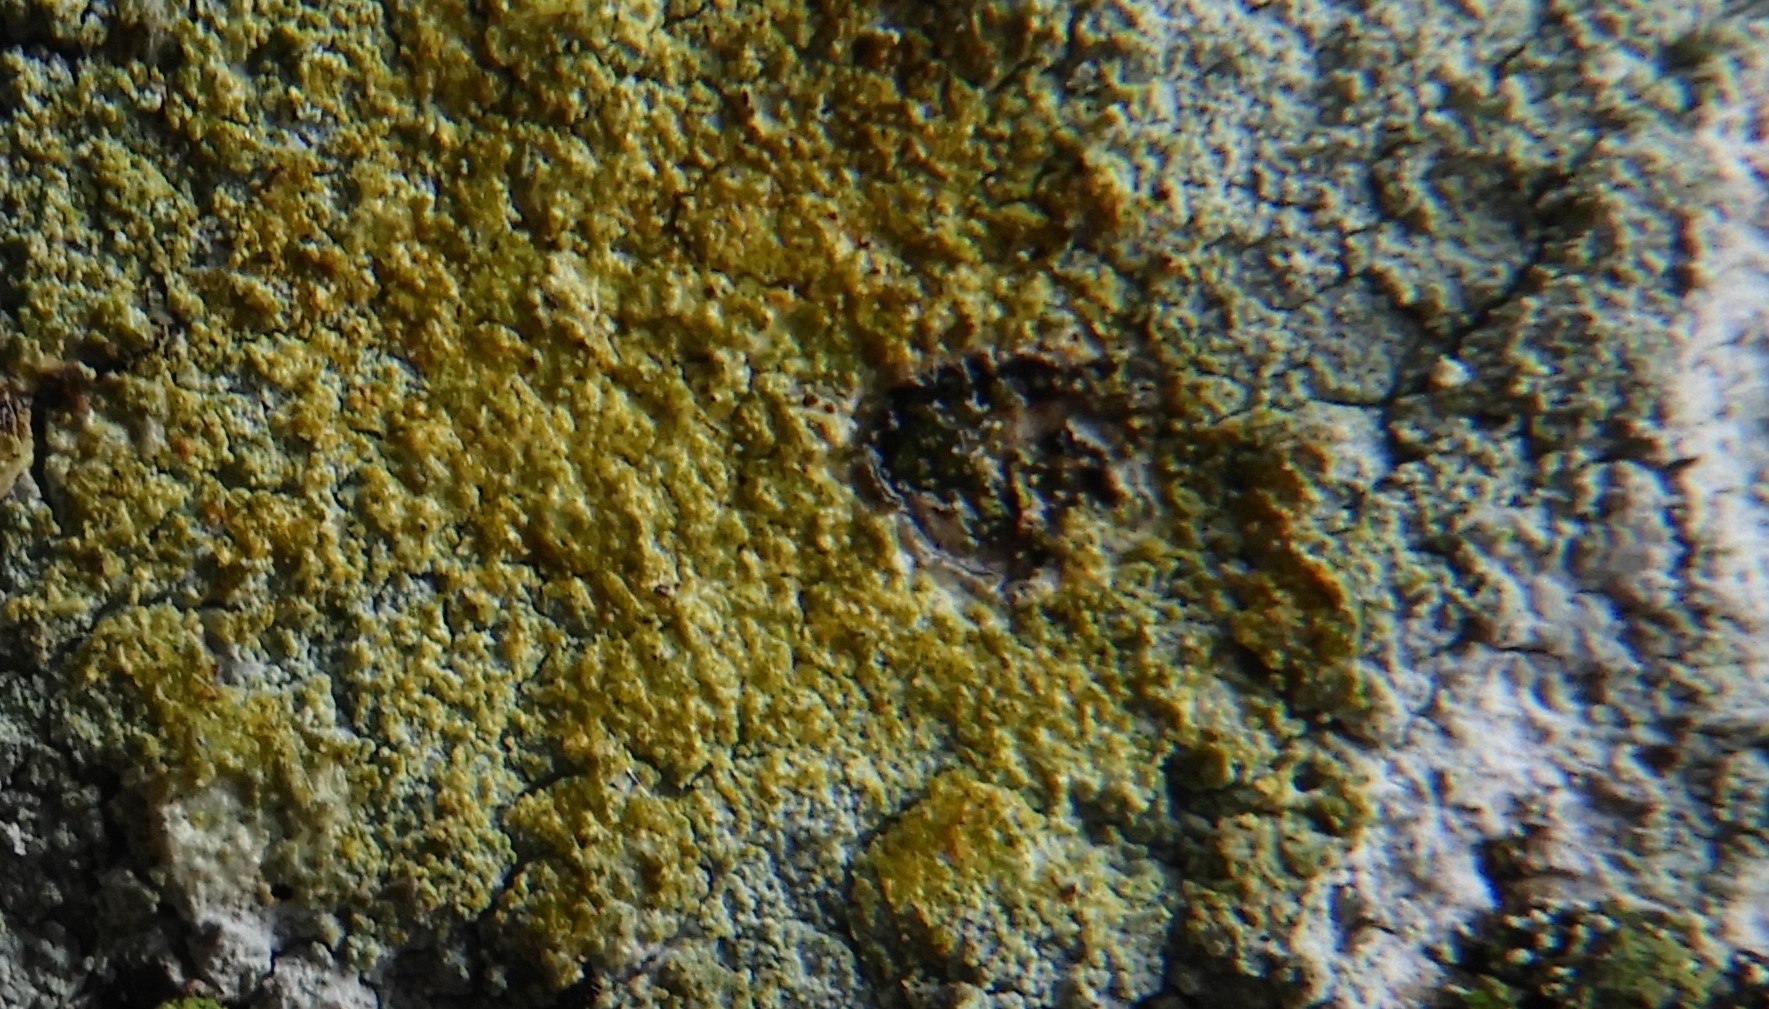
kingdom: Fungi
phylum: Ascomycota
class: Lecanoromycetes
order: Ostropales
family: Phlyctidaceae
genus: Phlyctis
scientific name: Phlyctis argena
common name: almindelig sølvlav
